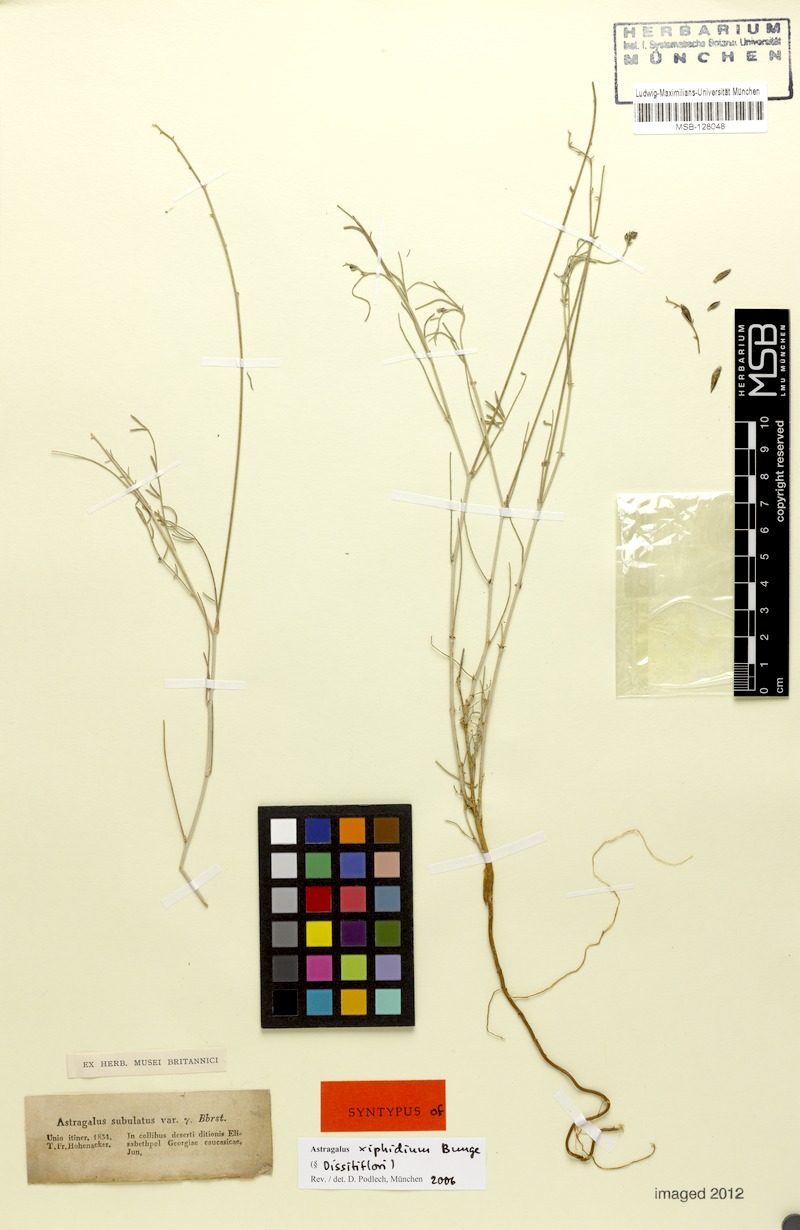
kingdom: Plantae
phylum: Tracheophyta
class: Magnoliopsida
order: Fabales
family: Fabaceae
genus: Astragalus
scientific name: Astragalus xiphidium
